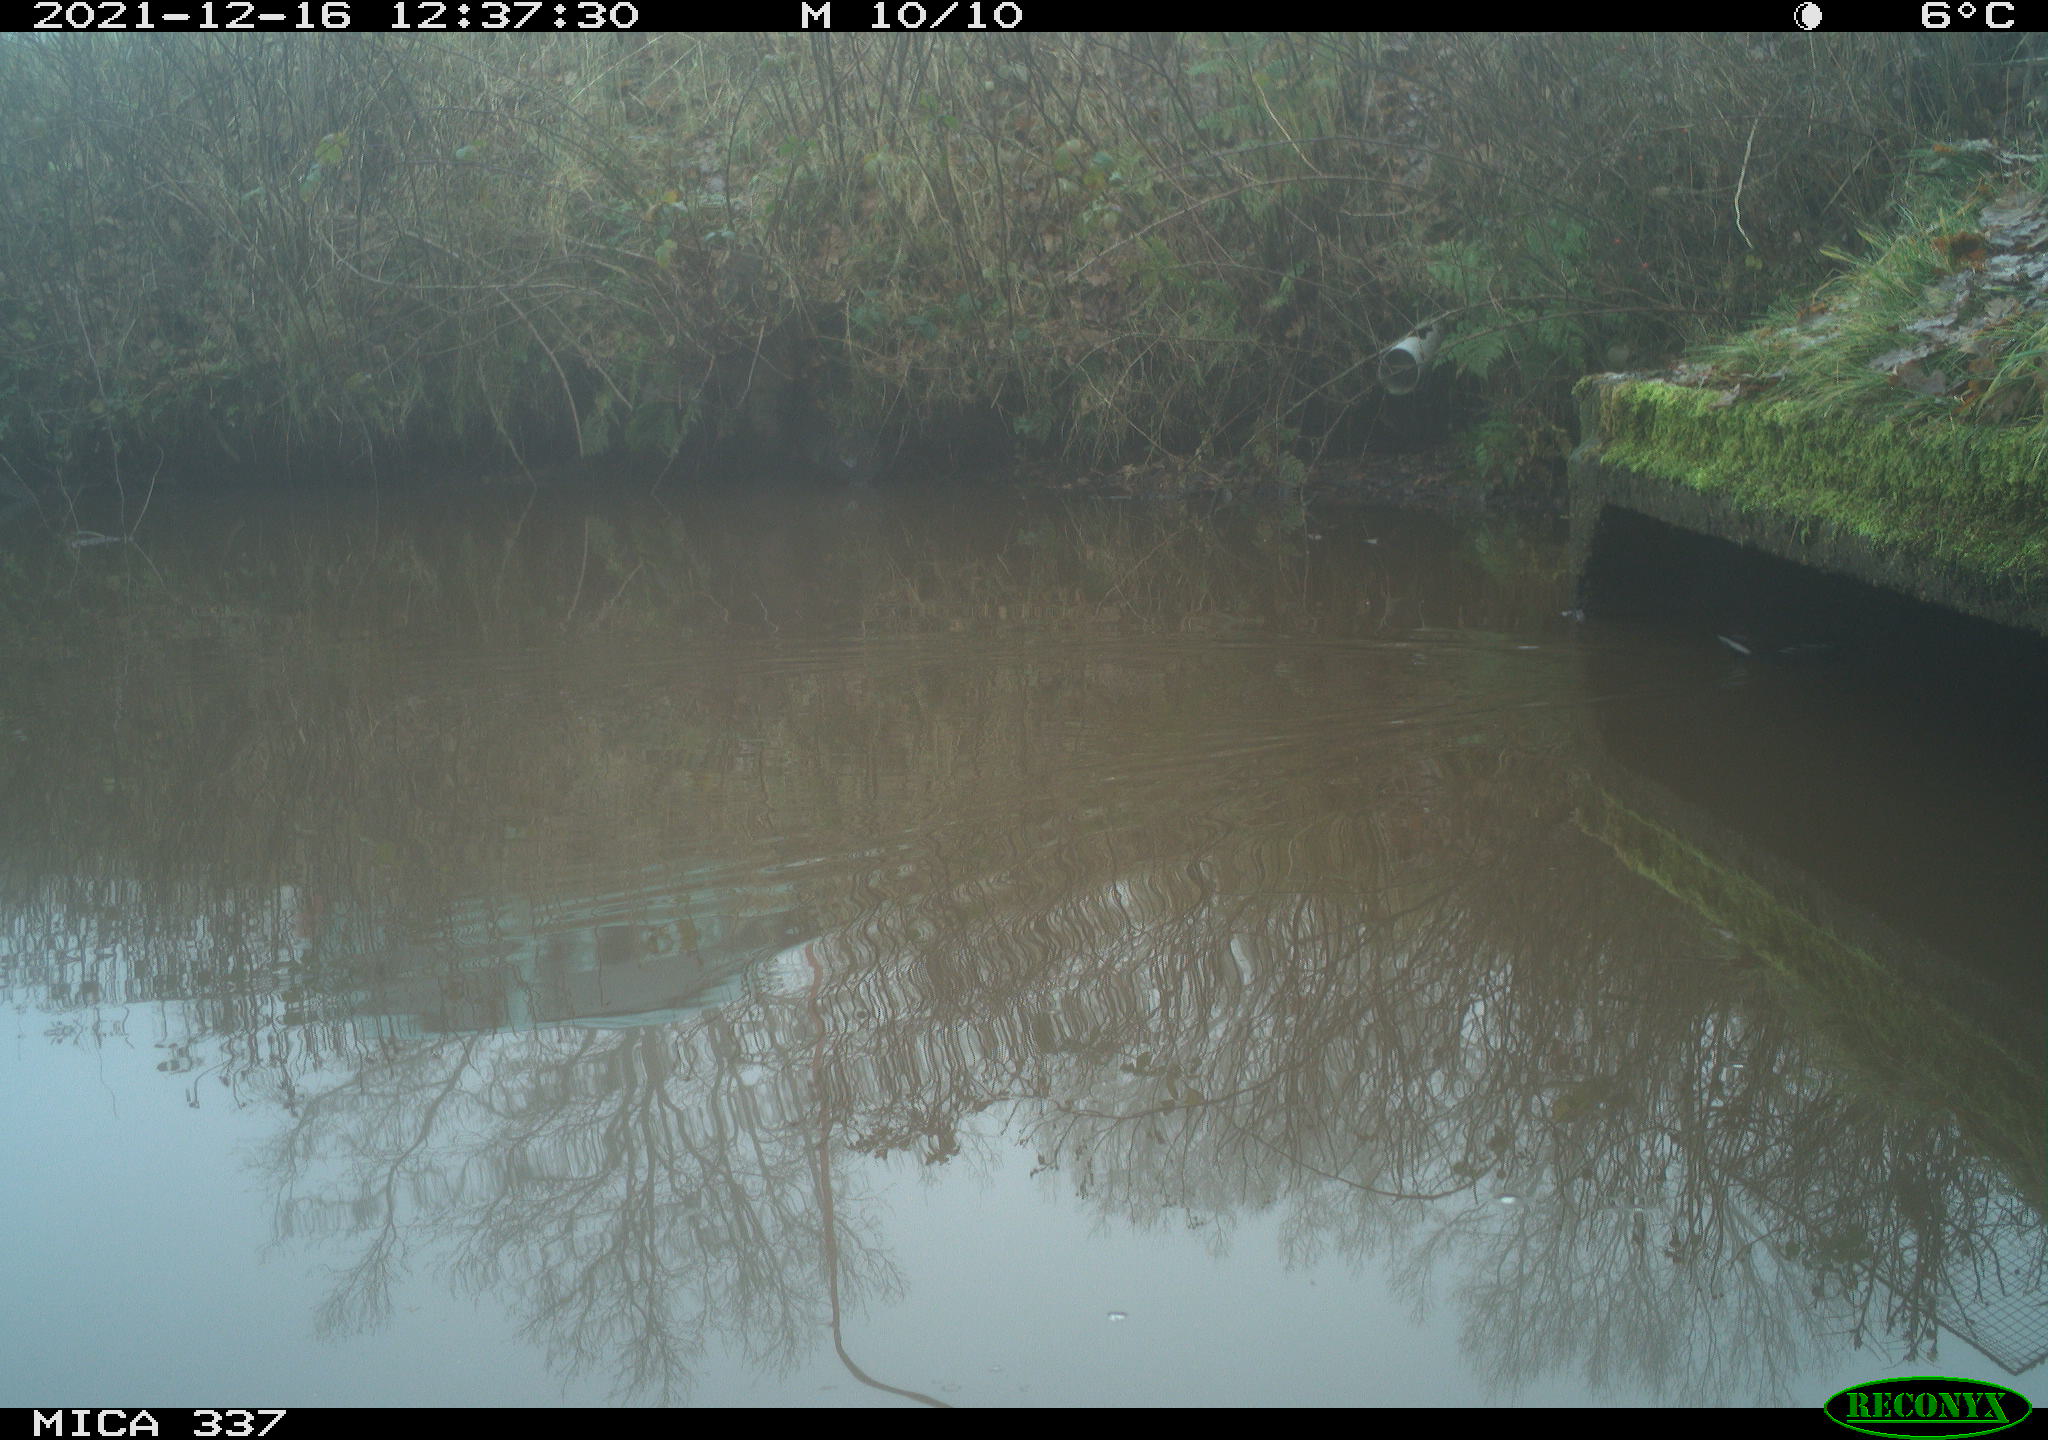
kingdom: Animalia
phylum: Chordata
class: Aves
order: Gruiformes
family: Rallidae
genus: Gallinula
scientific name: Gallinula chloropus
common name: Common moorhen
